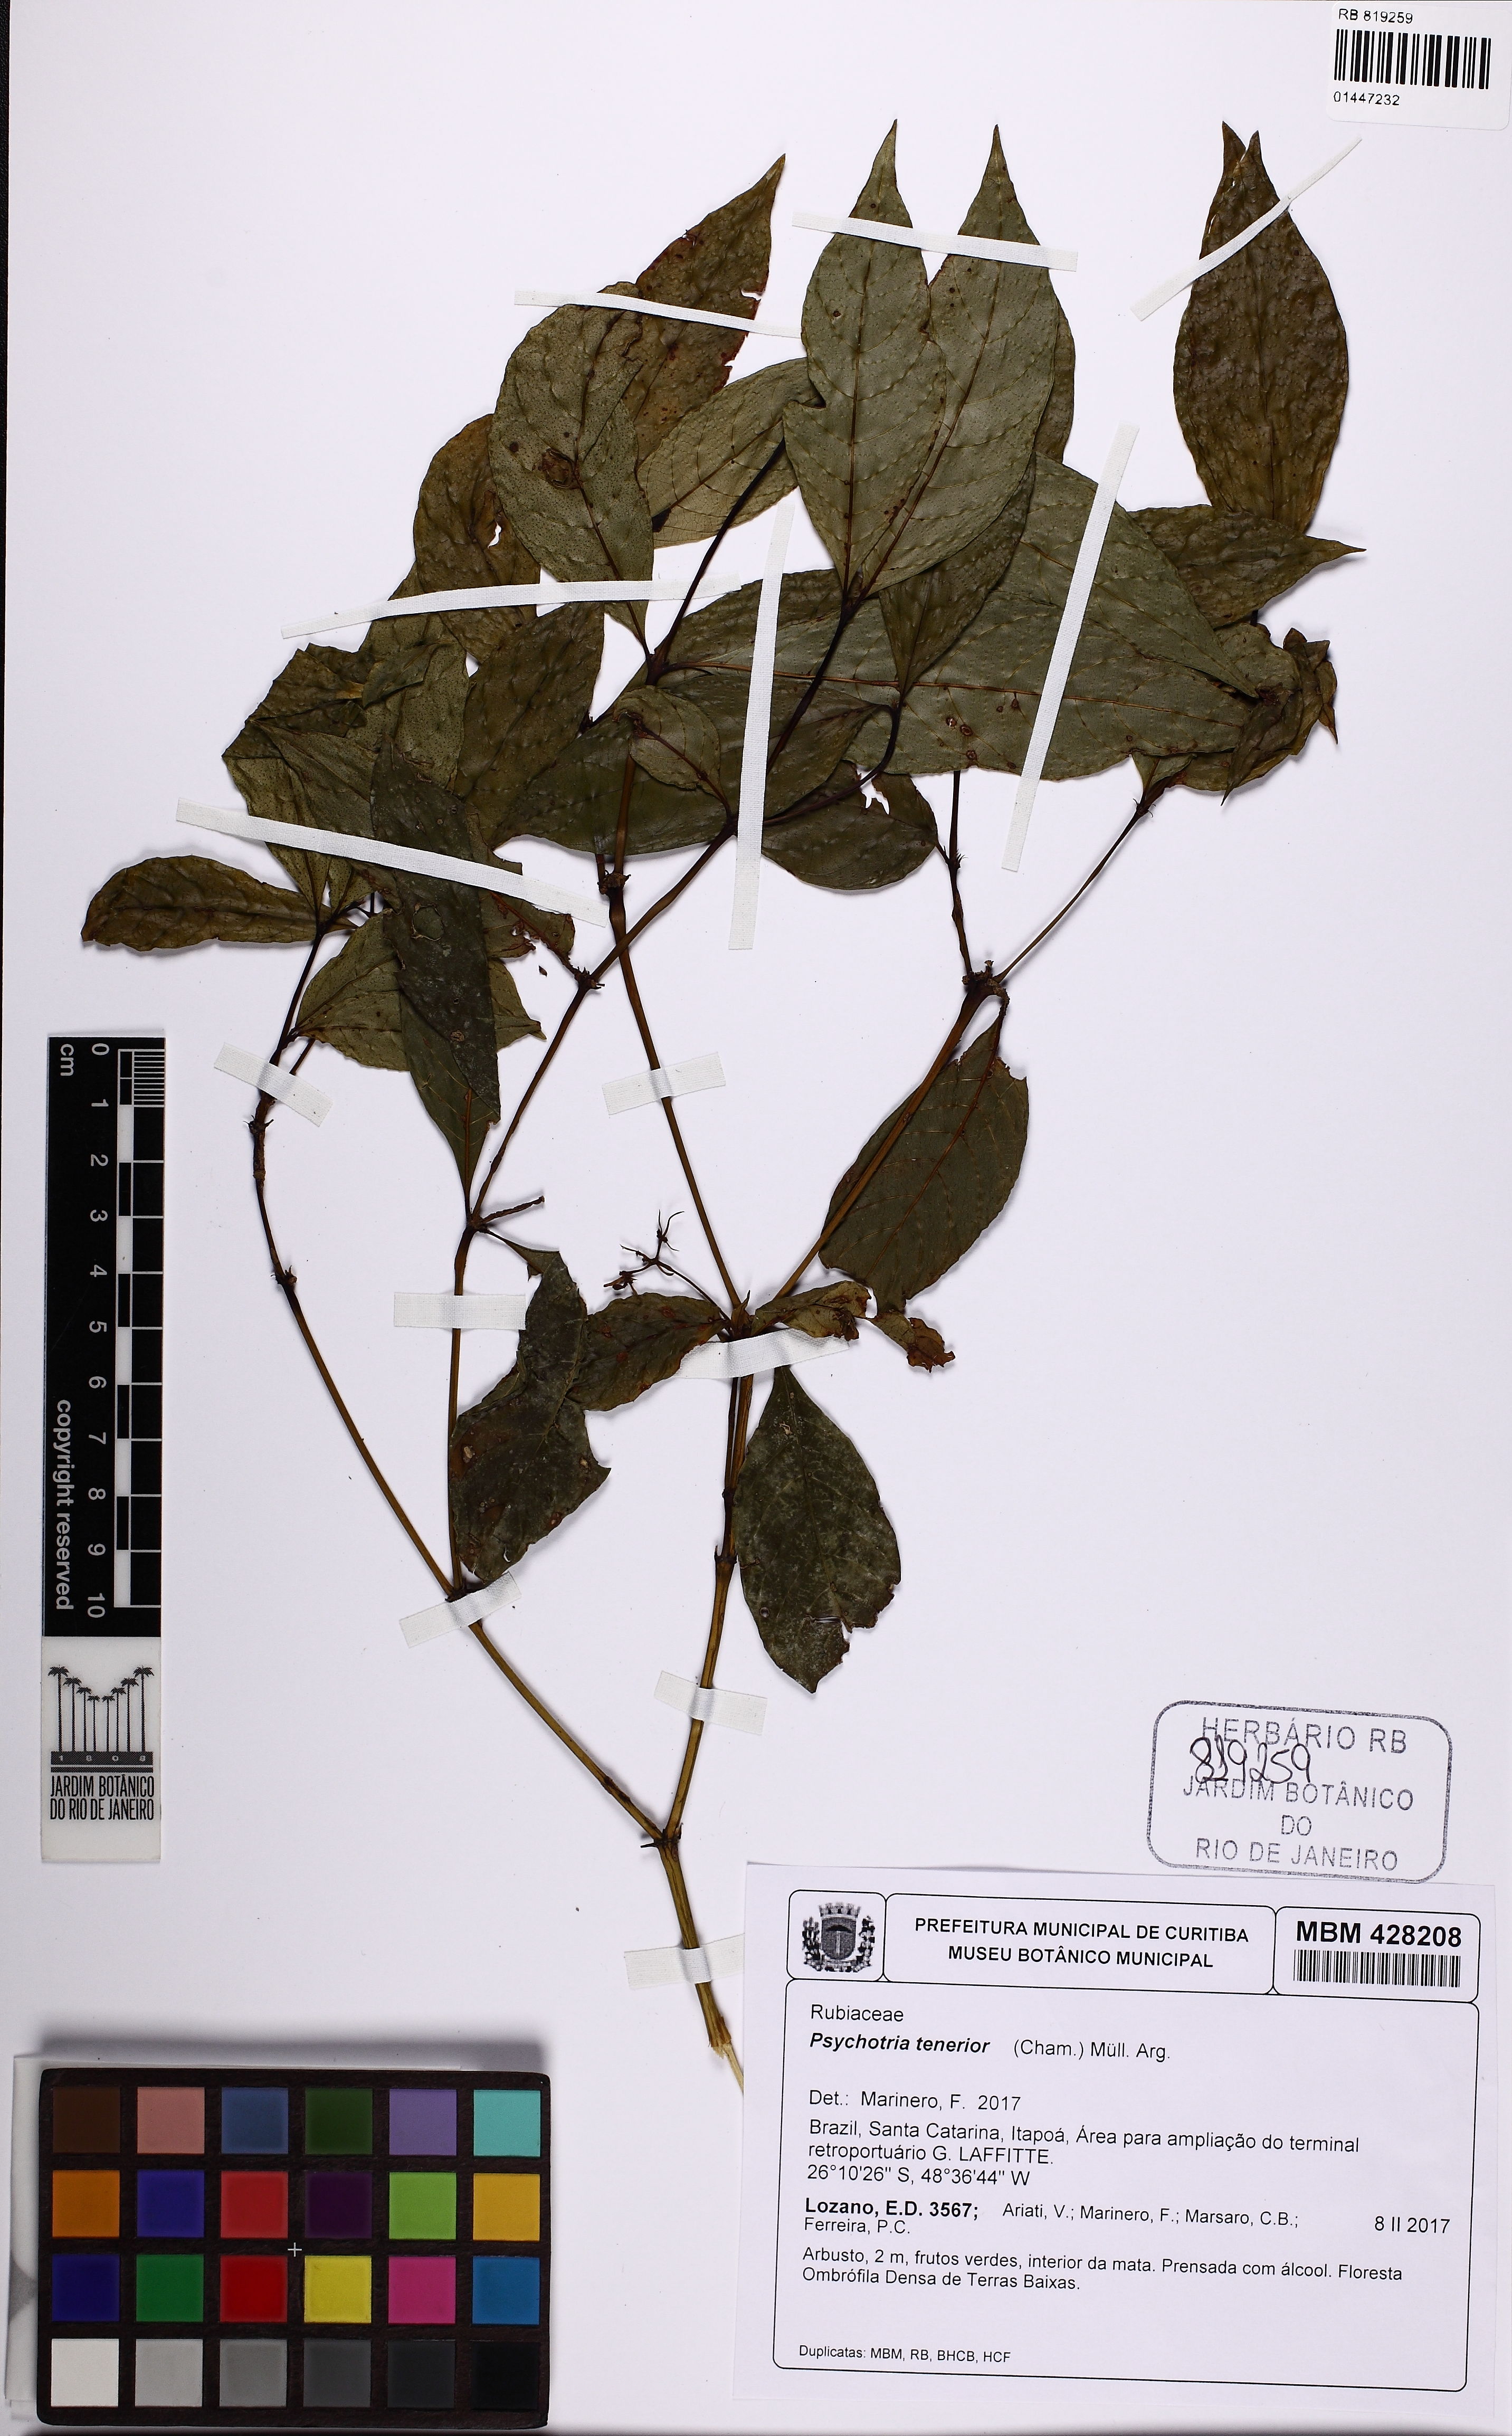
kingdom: Plantae
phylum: Tracheophyta
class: Magnoliopsida
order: Gentianales
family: Rubiaceae
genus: Palicourea
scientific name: Palicourea tenerior
